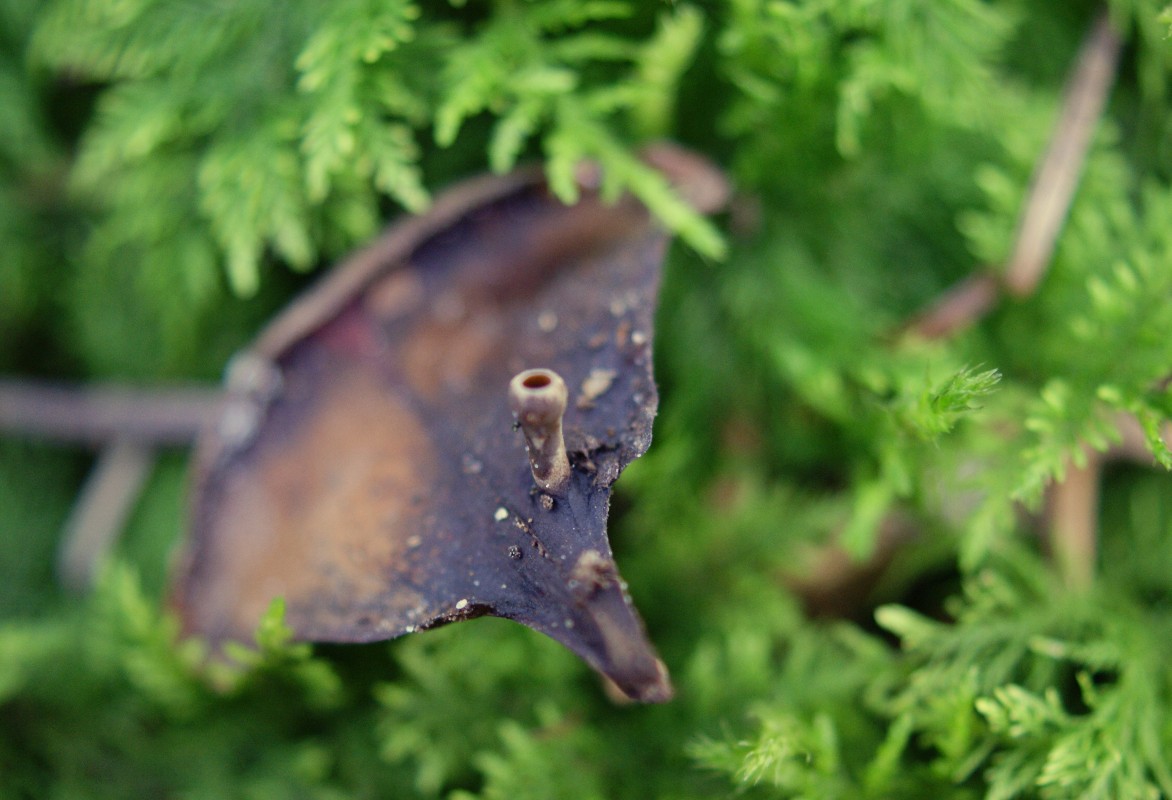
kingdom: Fungi
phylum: Ascomycota
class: Leotiomycetes
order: Helotiales
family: Sclerotiniaceae
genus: Ciboria
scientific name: Ciboria rufofusca
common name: kogleskæl-knoldskive
